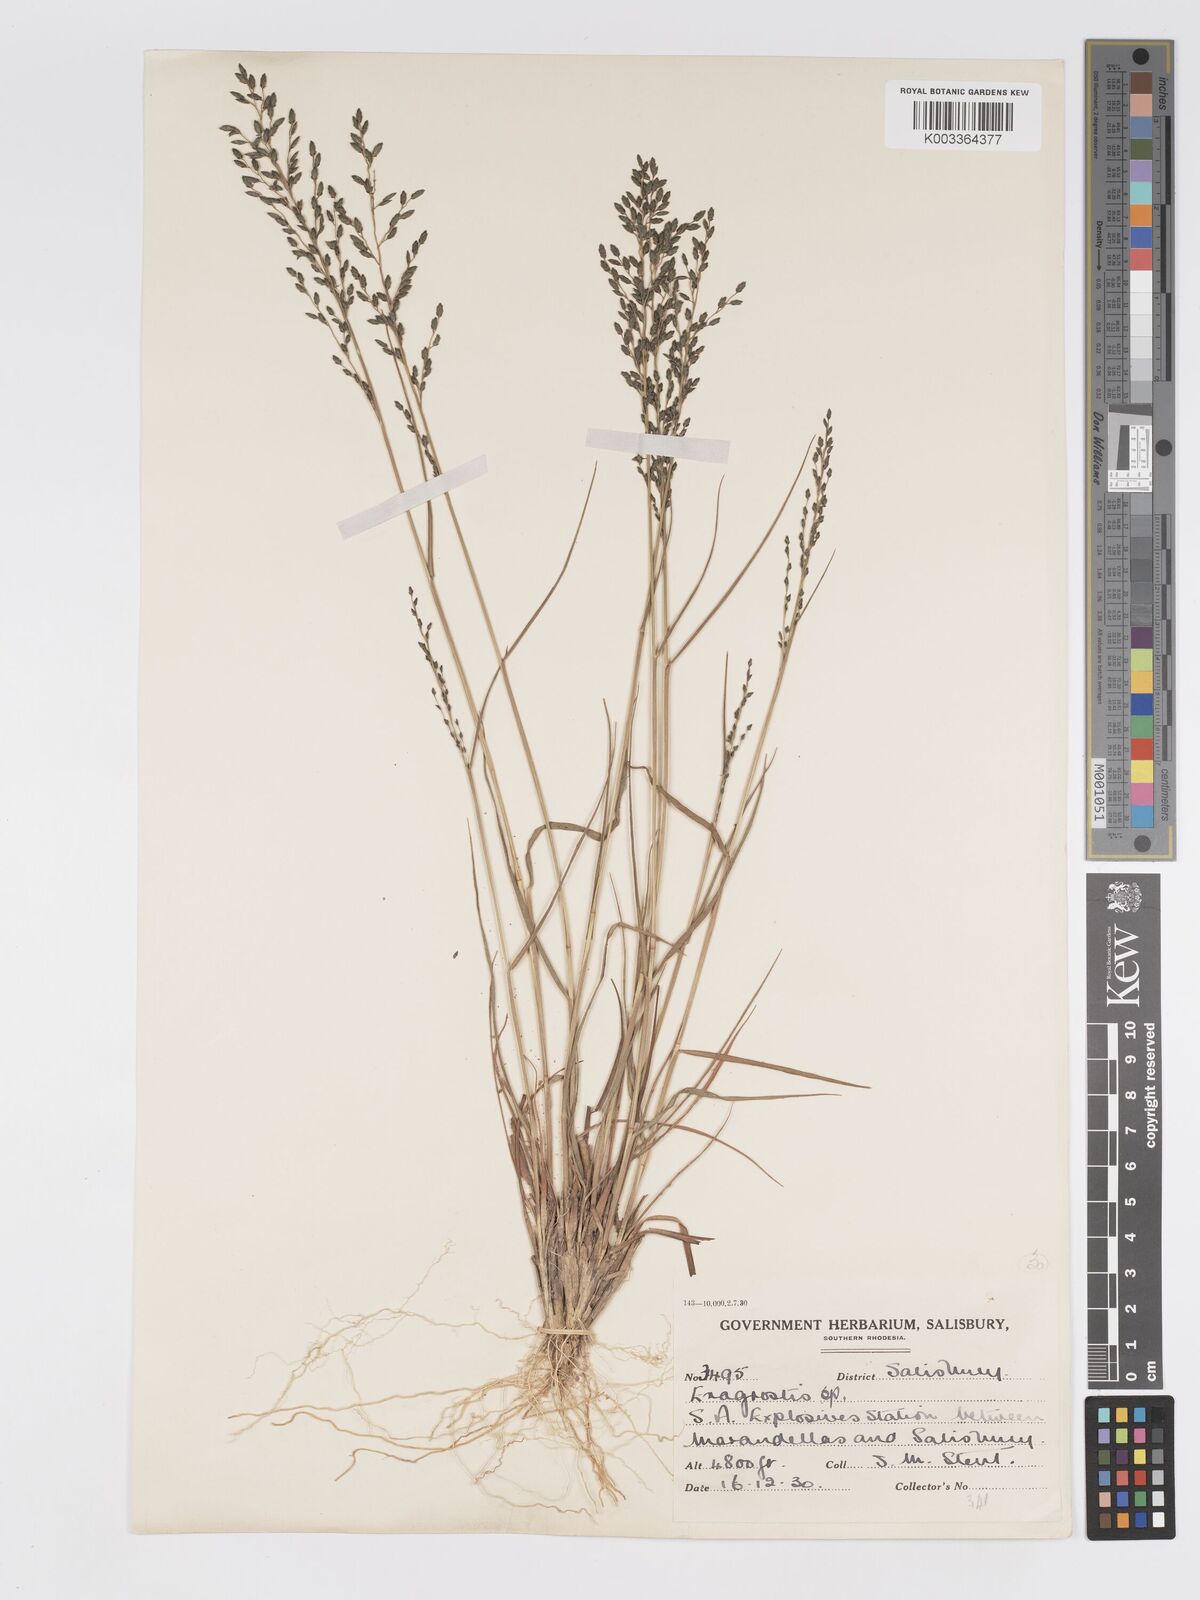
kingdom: Plantae
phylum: Tracheophyta
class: Liliopsida
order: Poales
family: Poaceae
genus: Eragrostis
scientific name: Eragrostis racemosa
